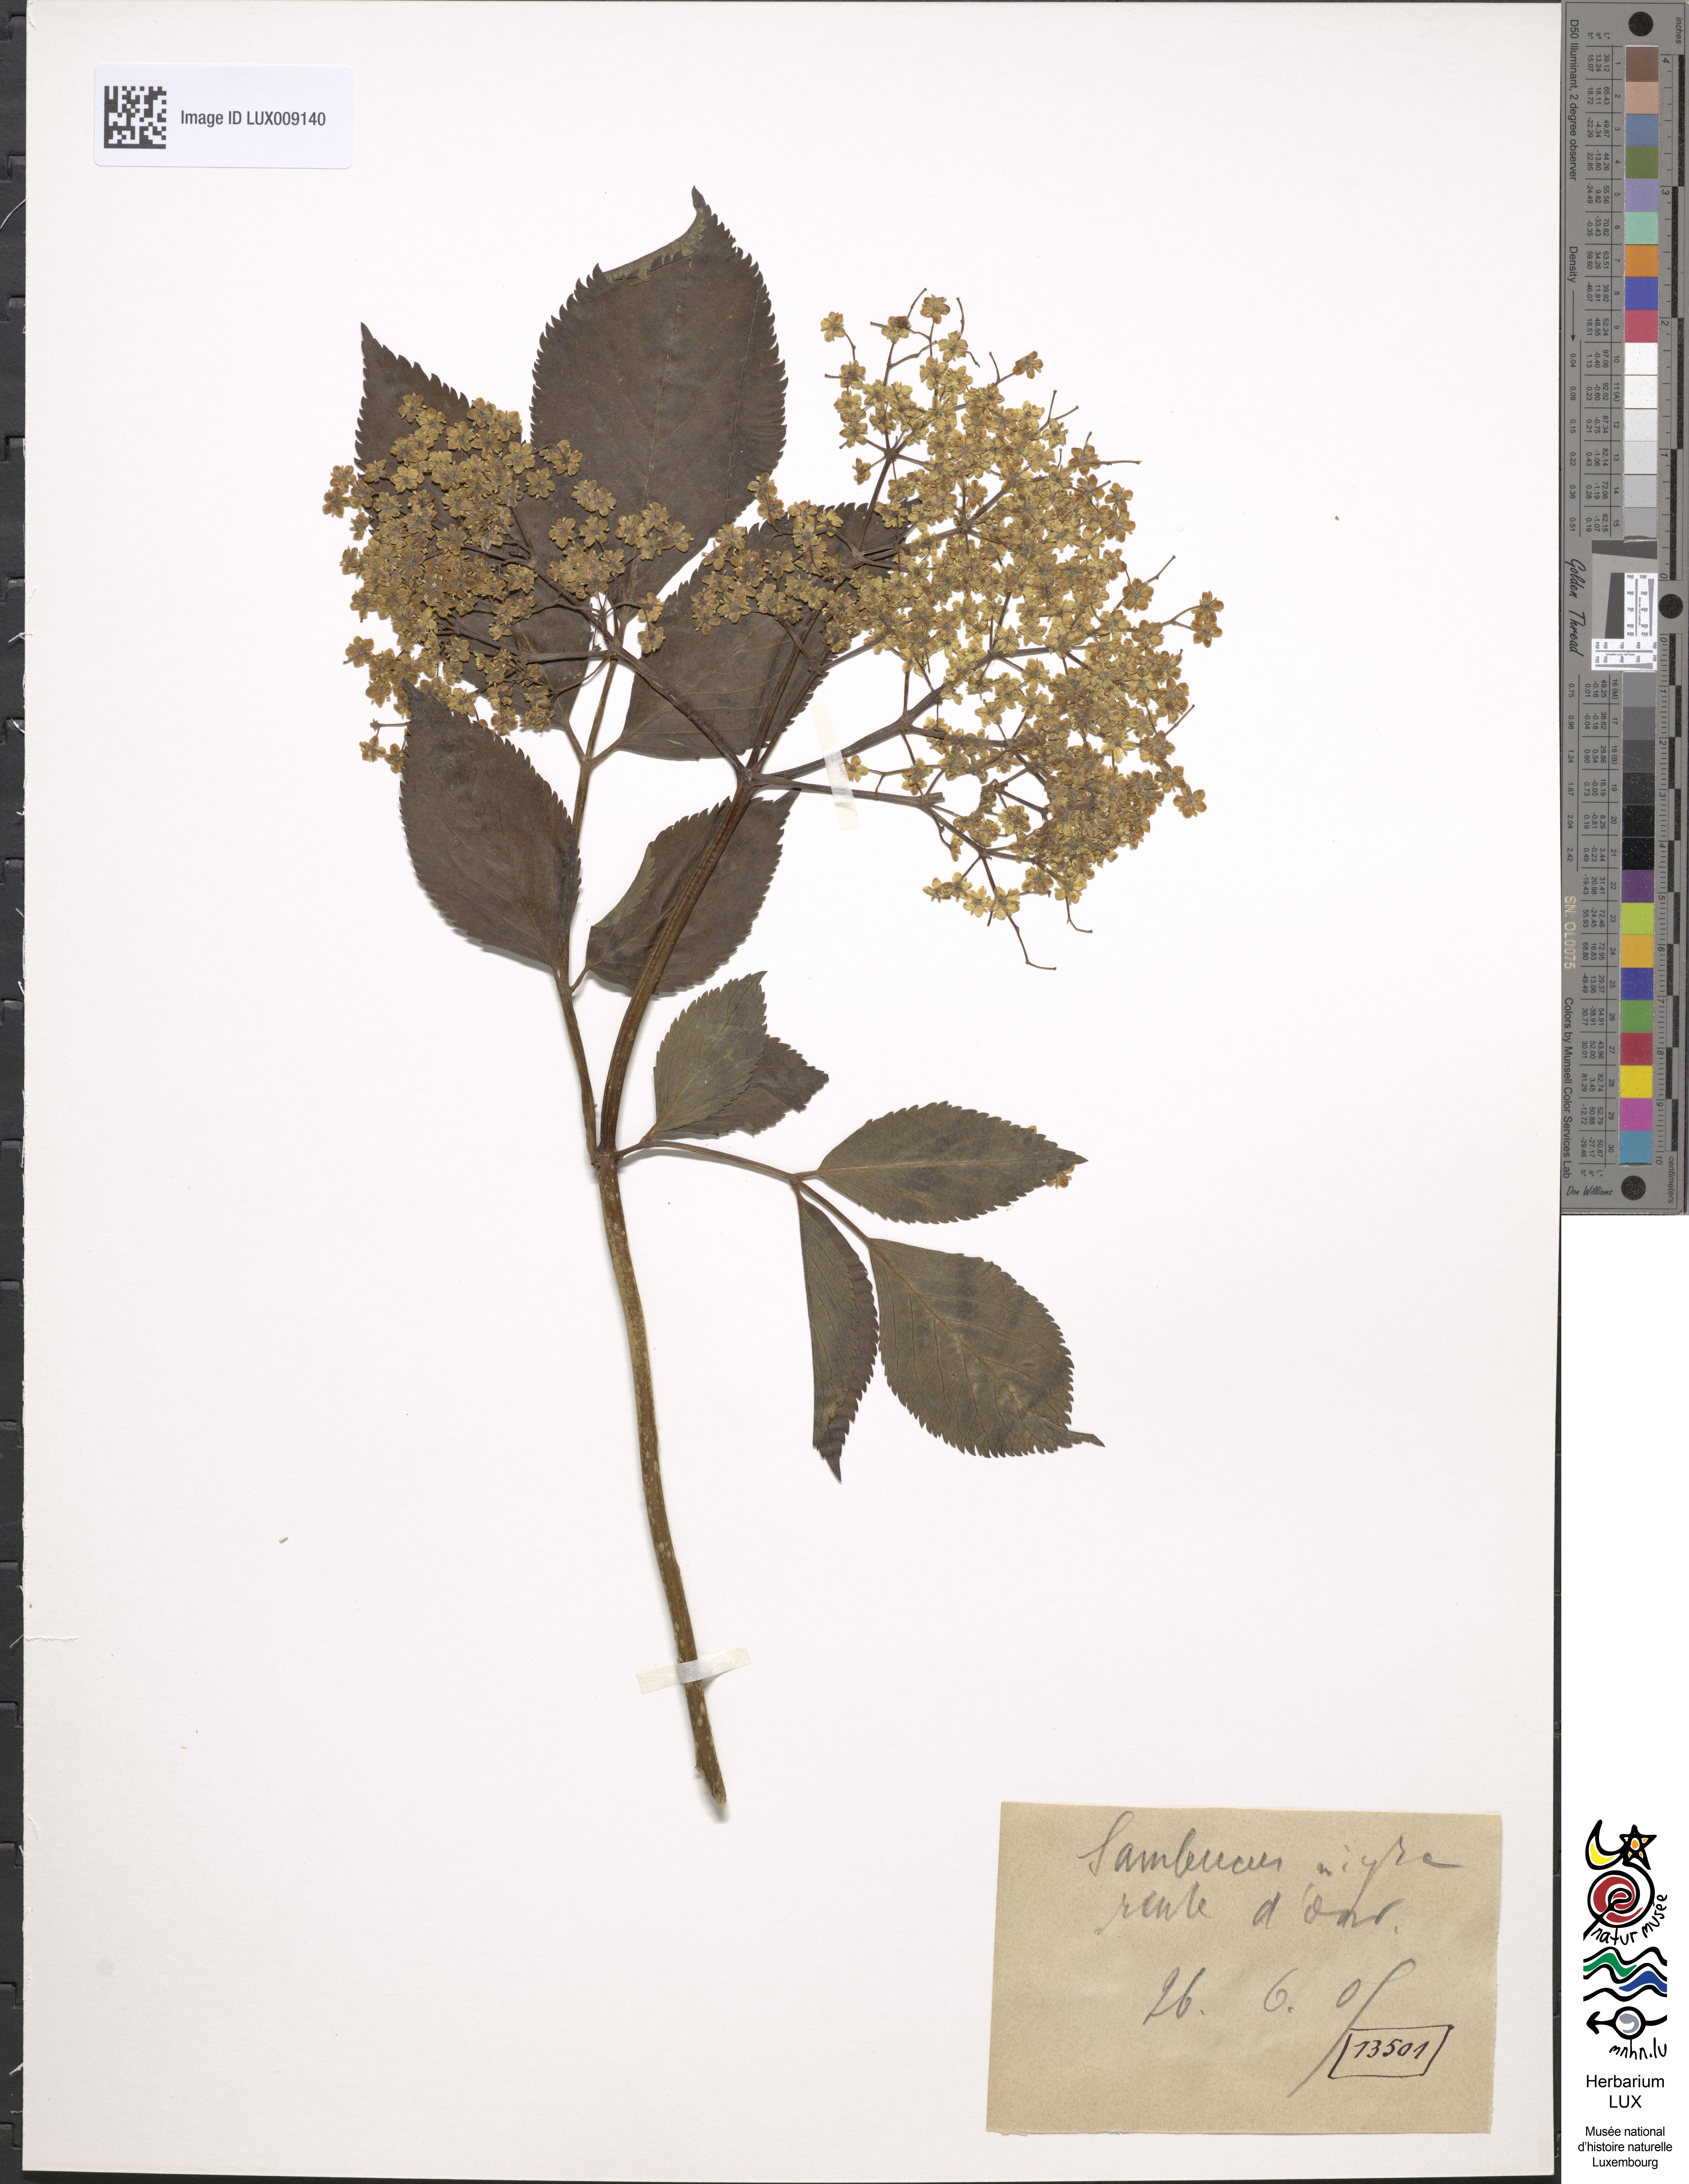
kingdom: Plantae
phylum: Tracheophyta
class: Magnoliopsida
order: Dipsacales
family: Viburnaceae
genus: Sambucus
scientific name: Sambucus nigra
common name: Elder
